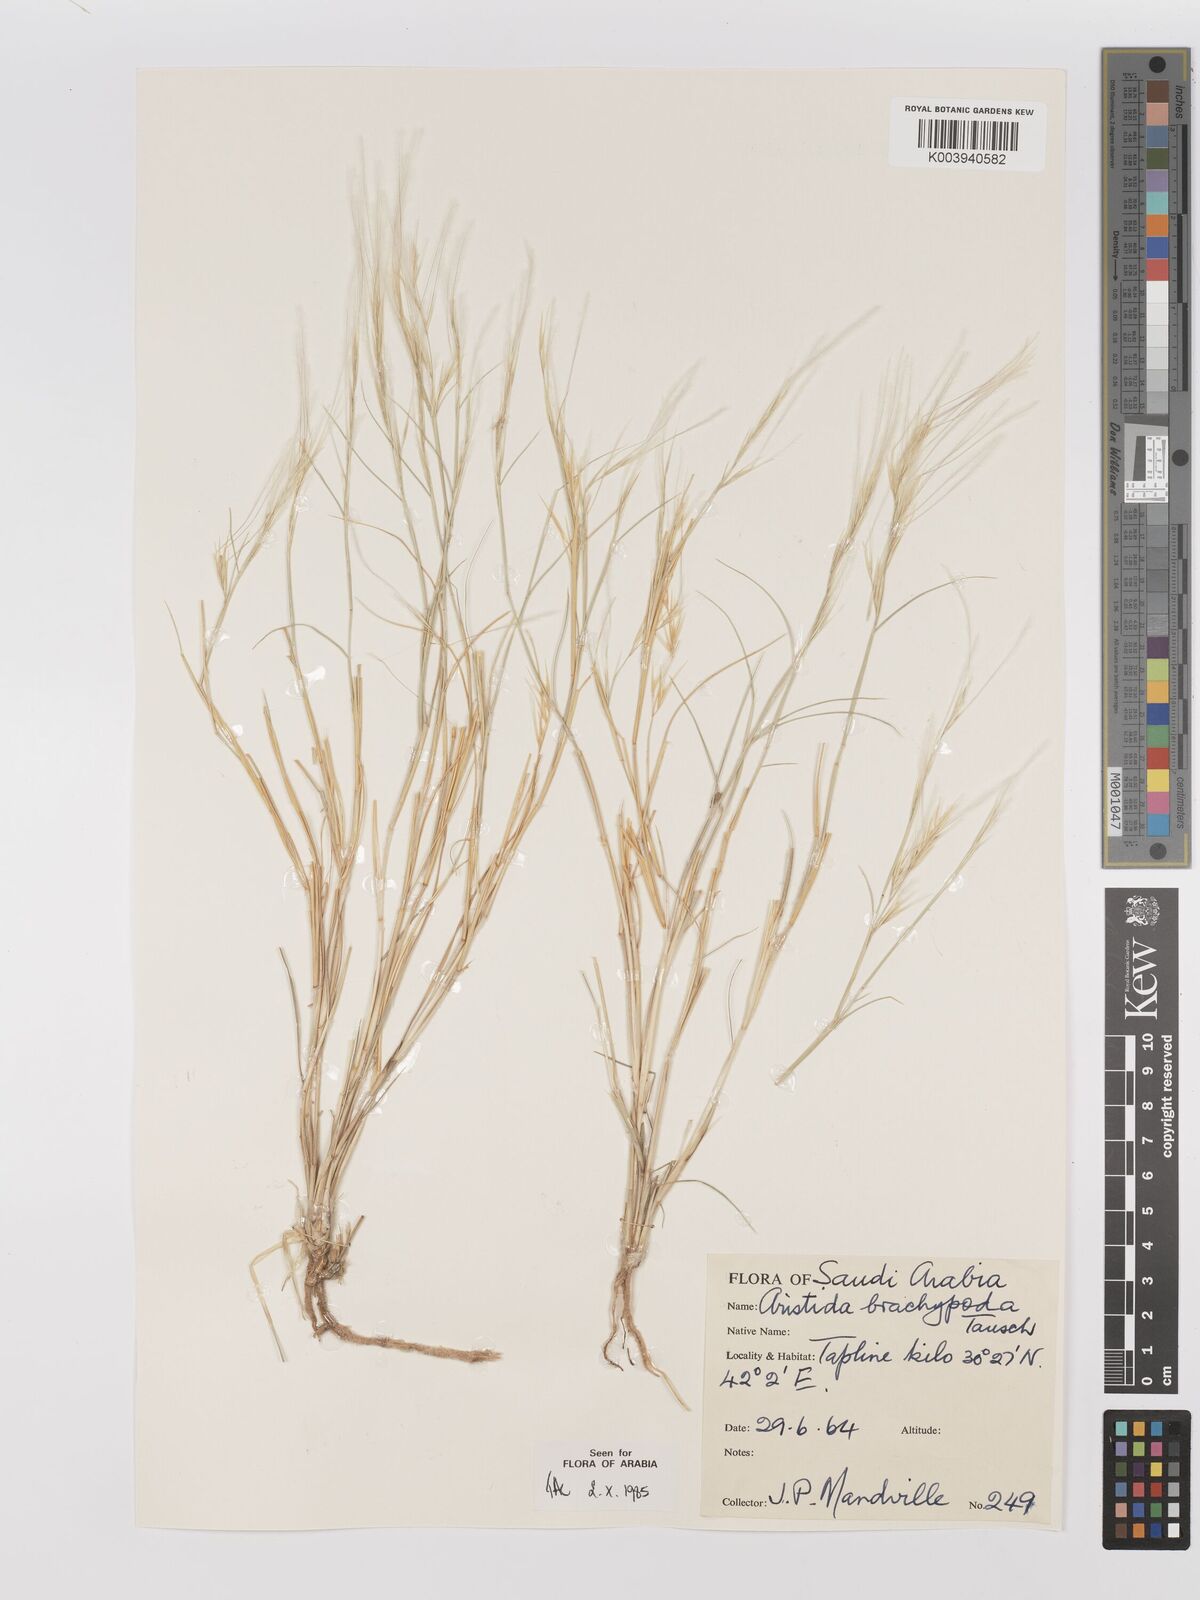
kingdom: Plantae
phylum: Tracheophyta
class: Liliopsida
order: Poales
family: Poaceae
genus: Stipagrostis
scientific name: Stipagrostis plumosa
